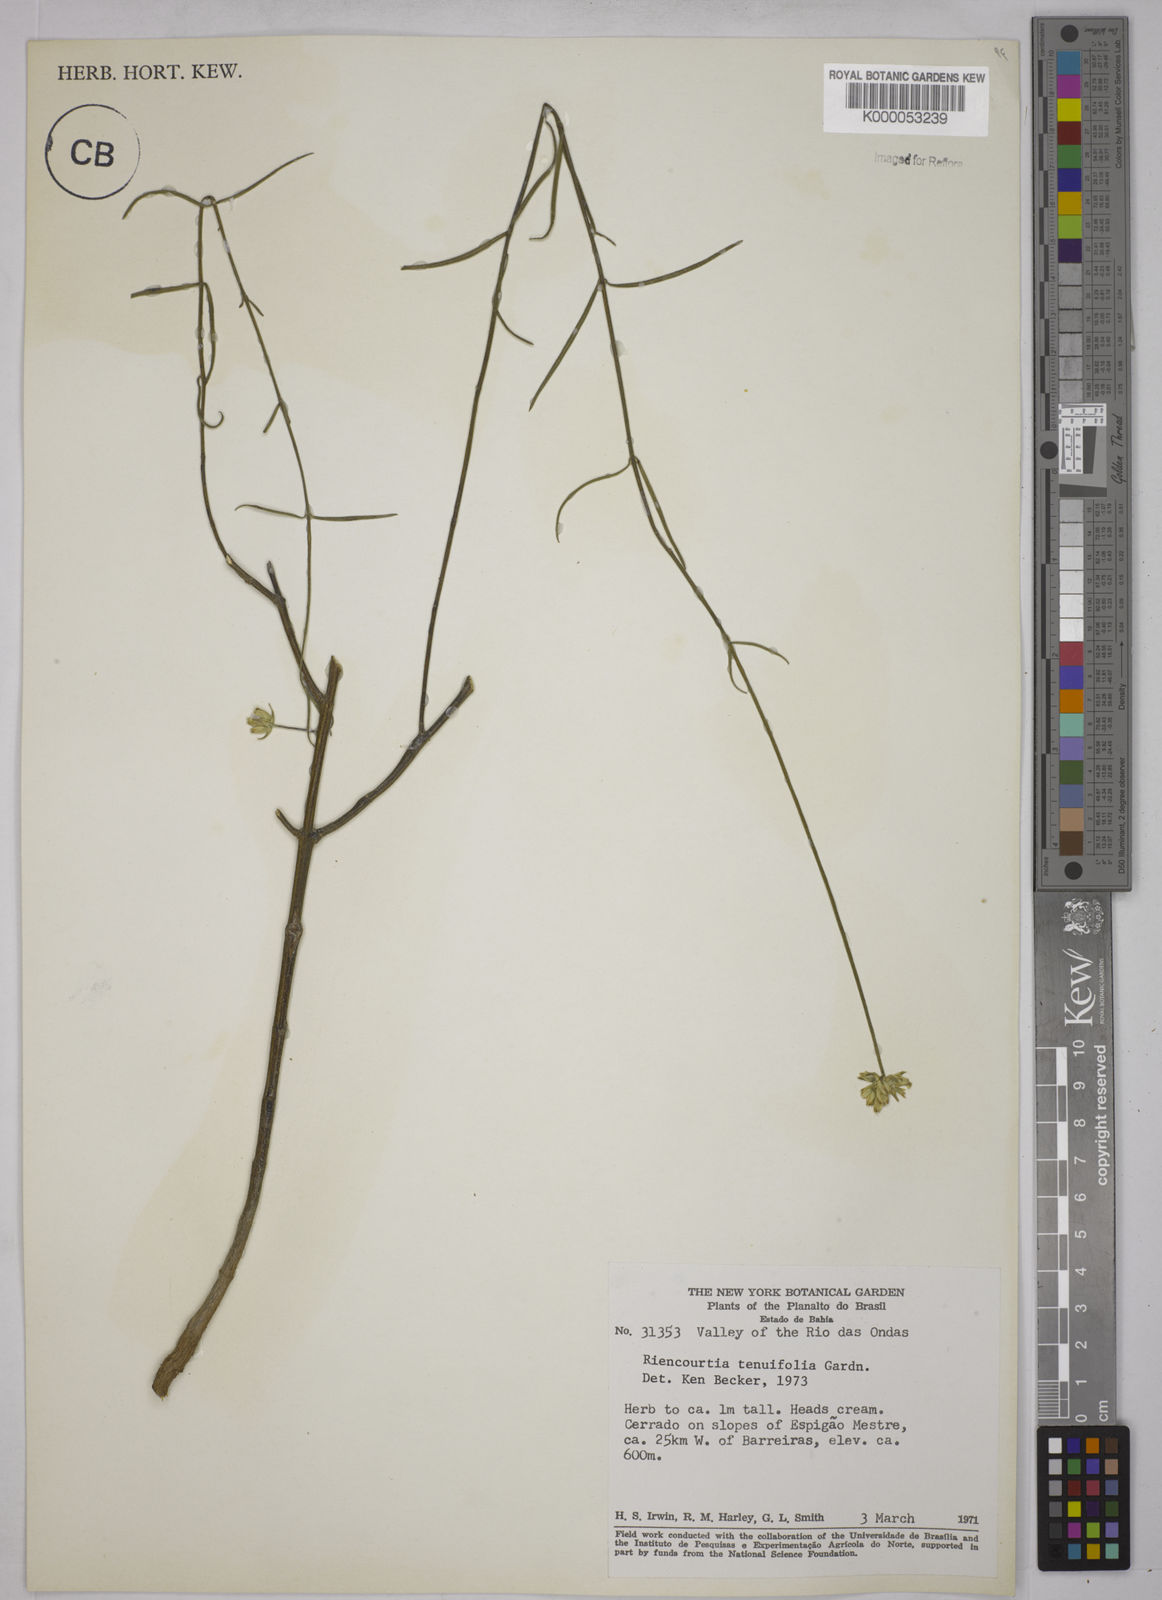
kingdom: Plantae
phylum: Tracheophyta
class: Magnoliopsida
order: Asterales
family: Asteraceae
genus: Riencourtia
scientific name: Riencourtia tenuifolia
